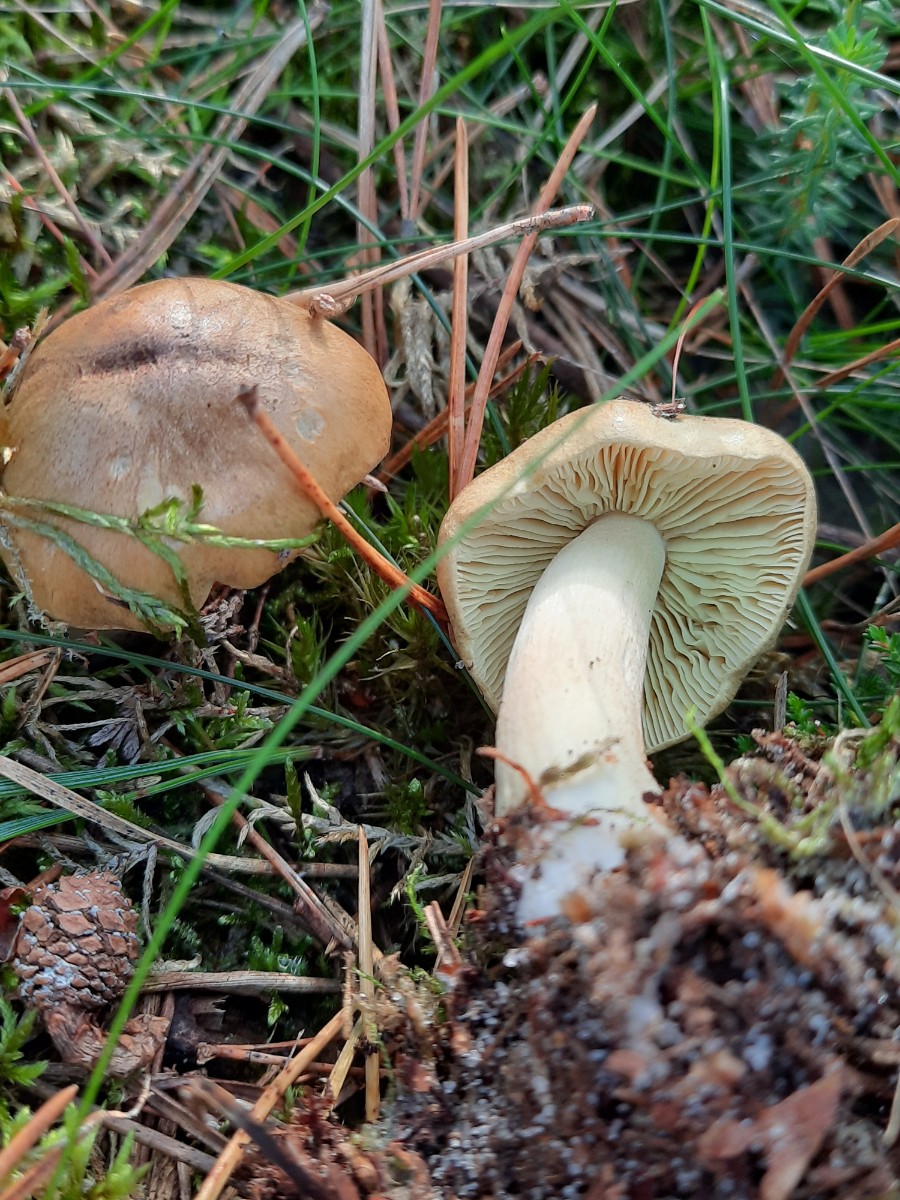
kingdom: Fungi
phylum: Basidiomycota
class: Agaricomycetes
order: Agaricales
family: Tricholomataceae
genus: Tricholoma
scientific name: Tricholoma aestuans
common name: kegle-ridderhat
